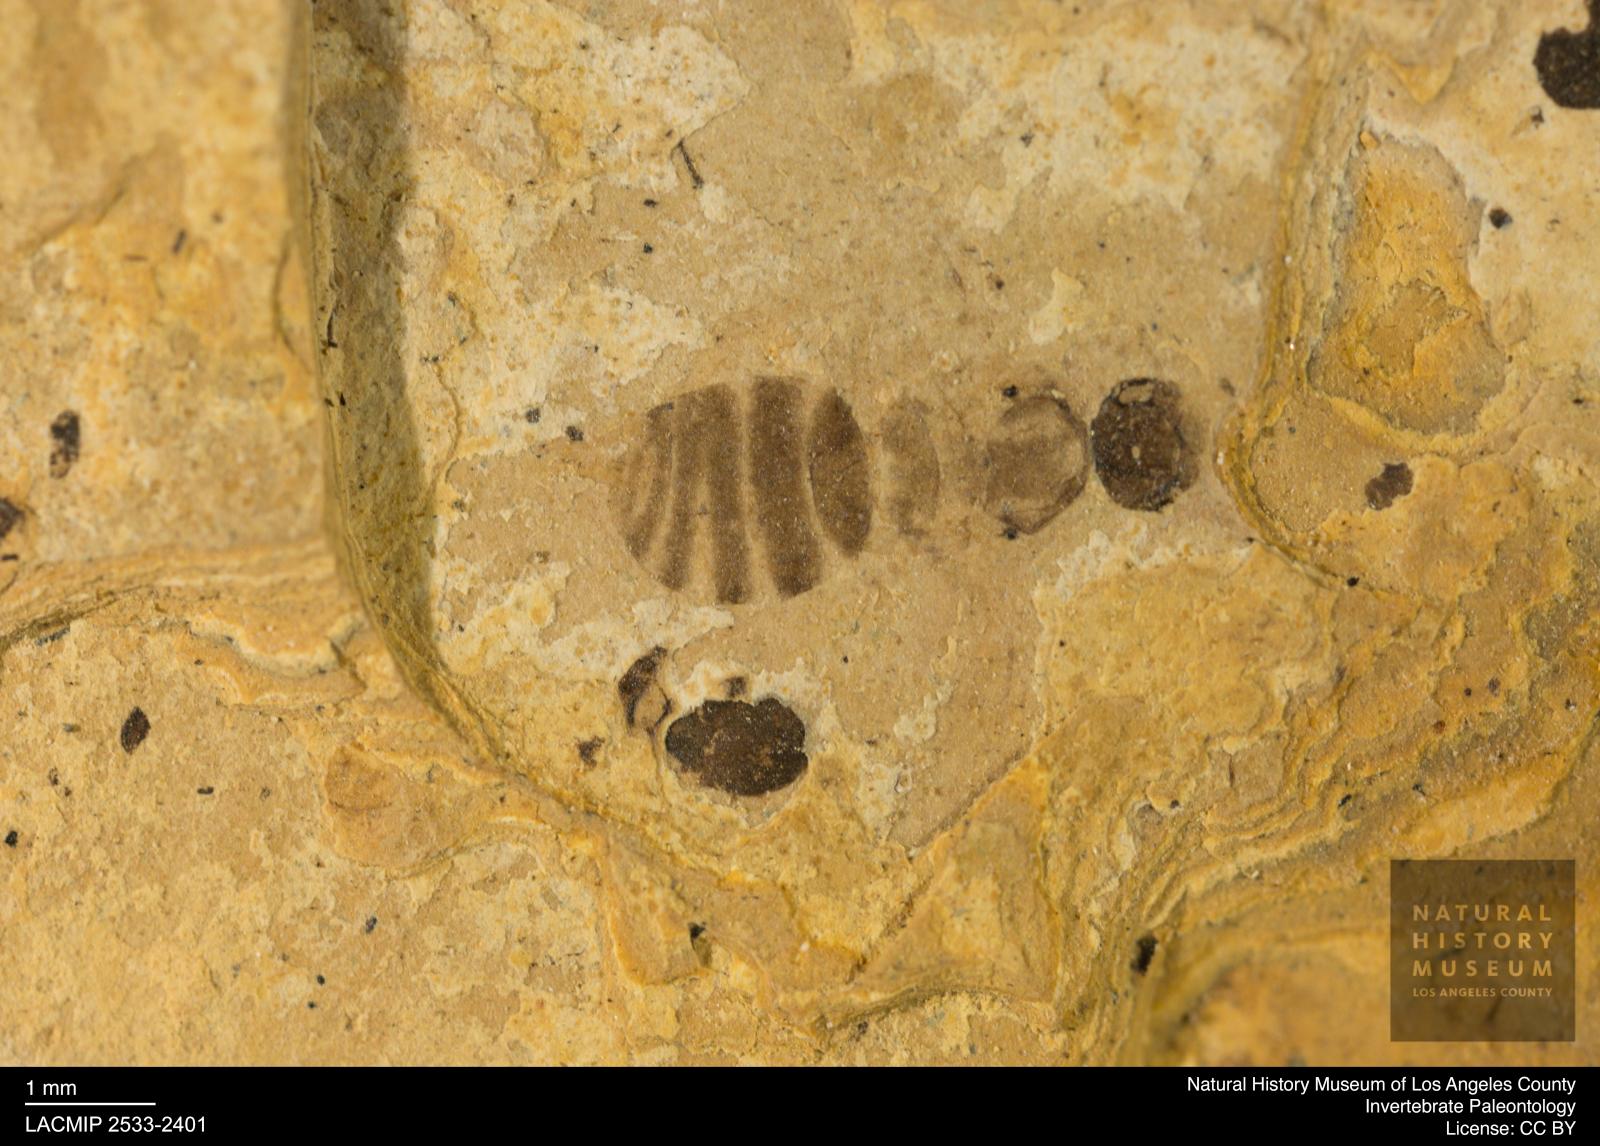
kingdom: Animalia
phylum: Arthropoda
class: Insecta
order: Hymenoptera
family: Formicidae
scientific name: Formicidae
